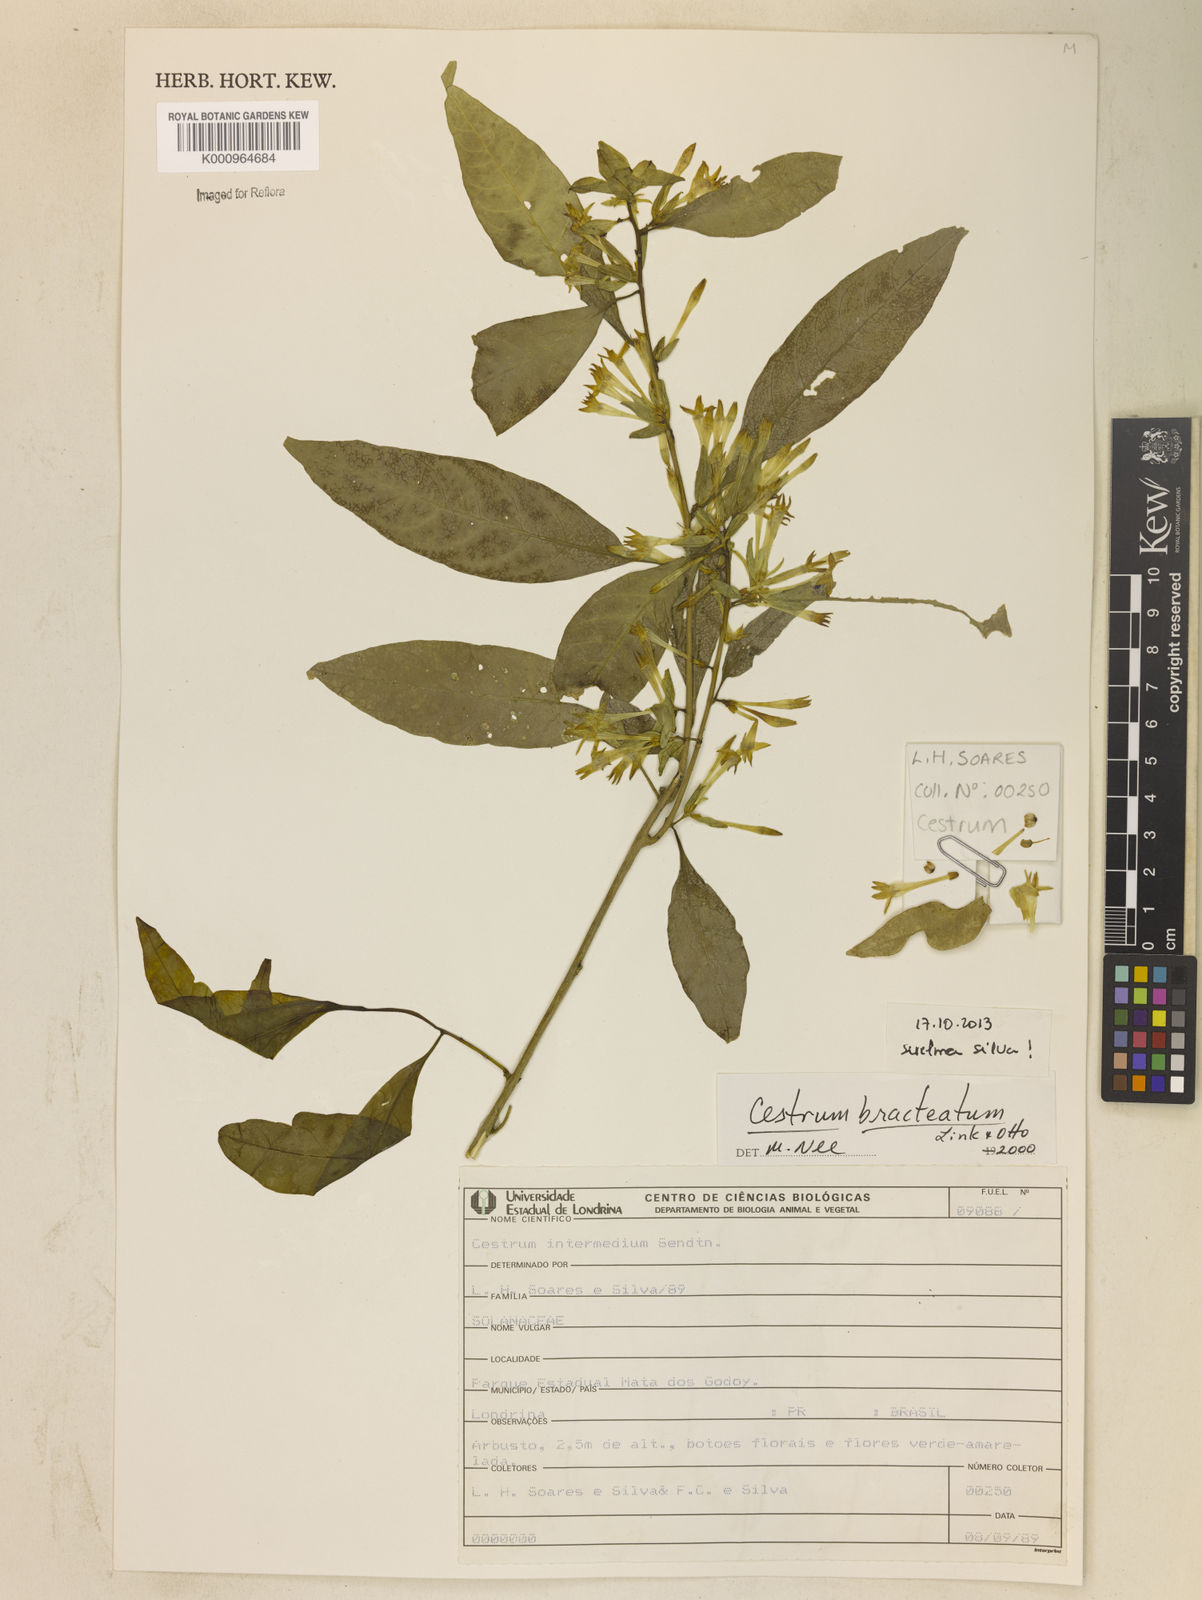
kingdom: Plantae
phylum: Tracheophyta
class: Magnoliopsida
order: Solanales
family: Solanaceae
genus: Cestrum
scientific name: Cestrum bracteatum
